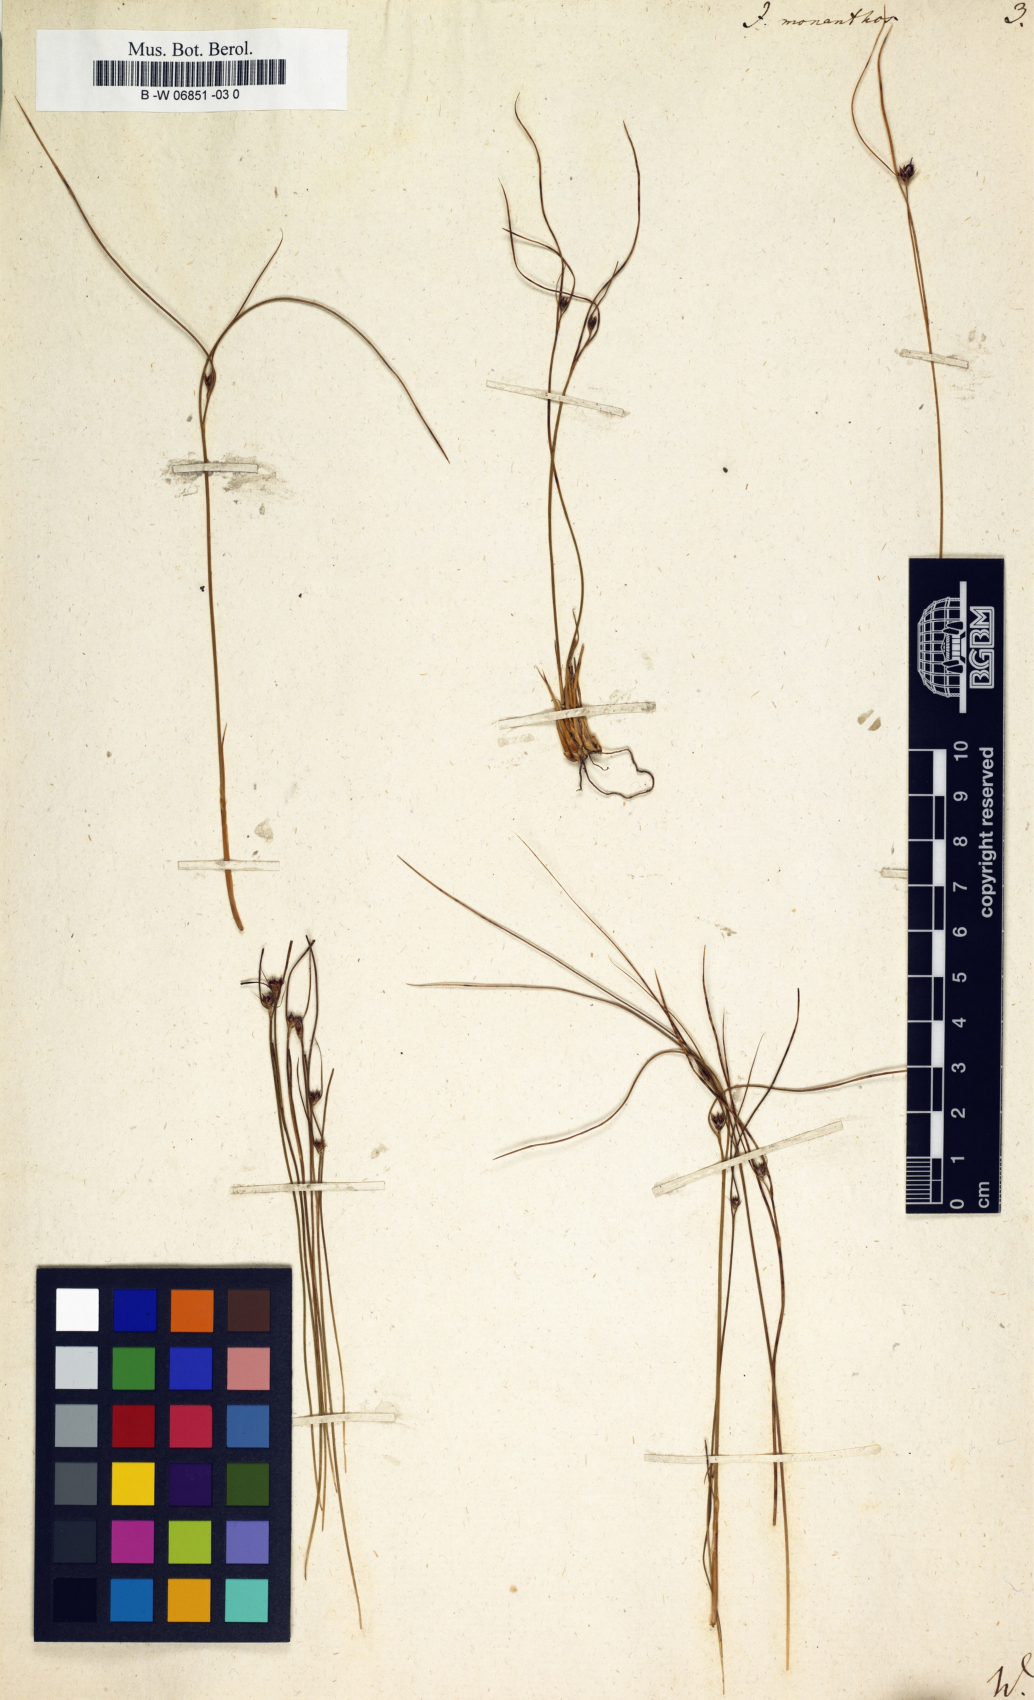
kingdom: Plantae
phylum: Tracheophyta
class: Liliopsida
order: Poales
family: Juncaceae
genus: Oreojuncus
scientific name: Oreojuncus monanthos
